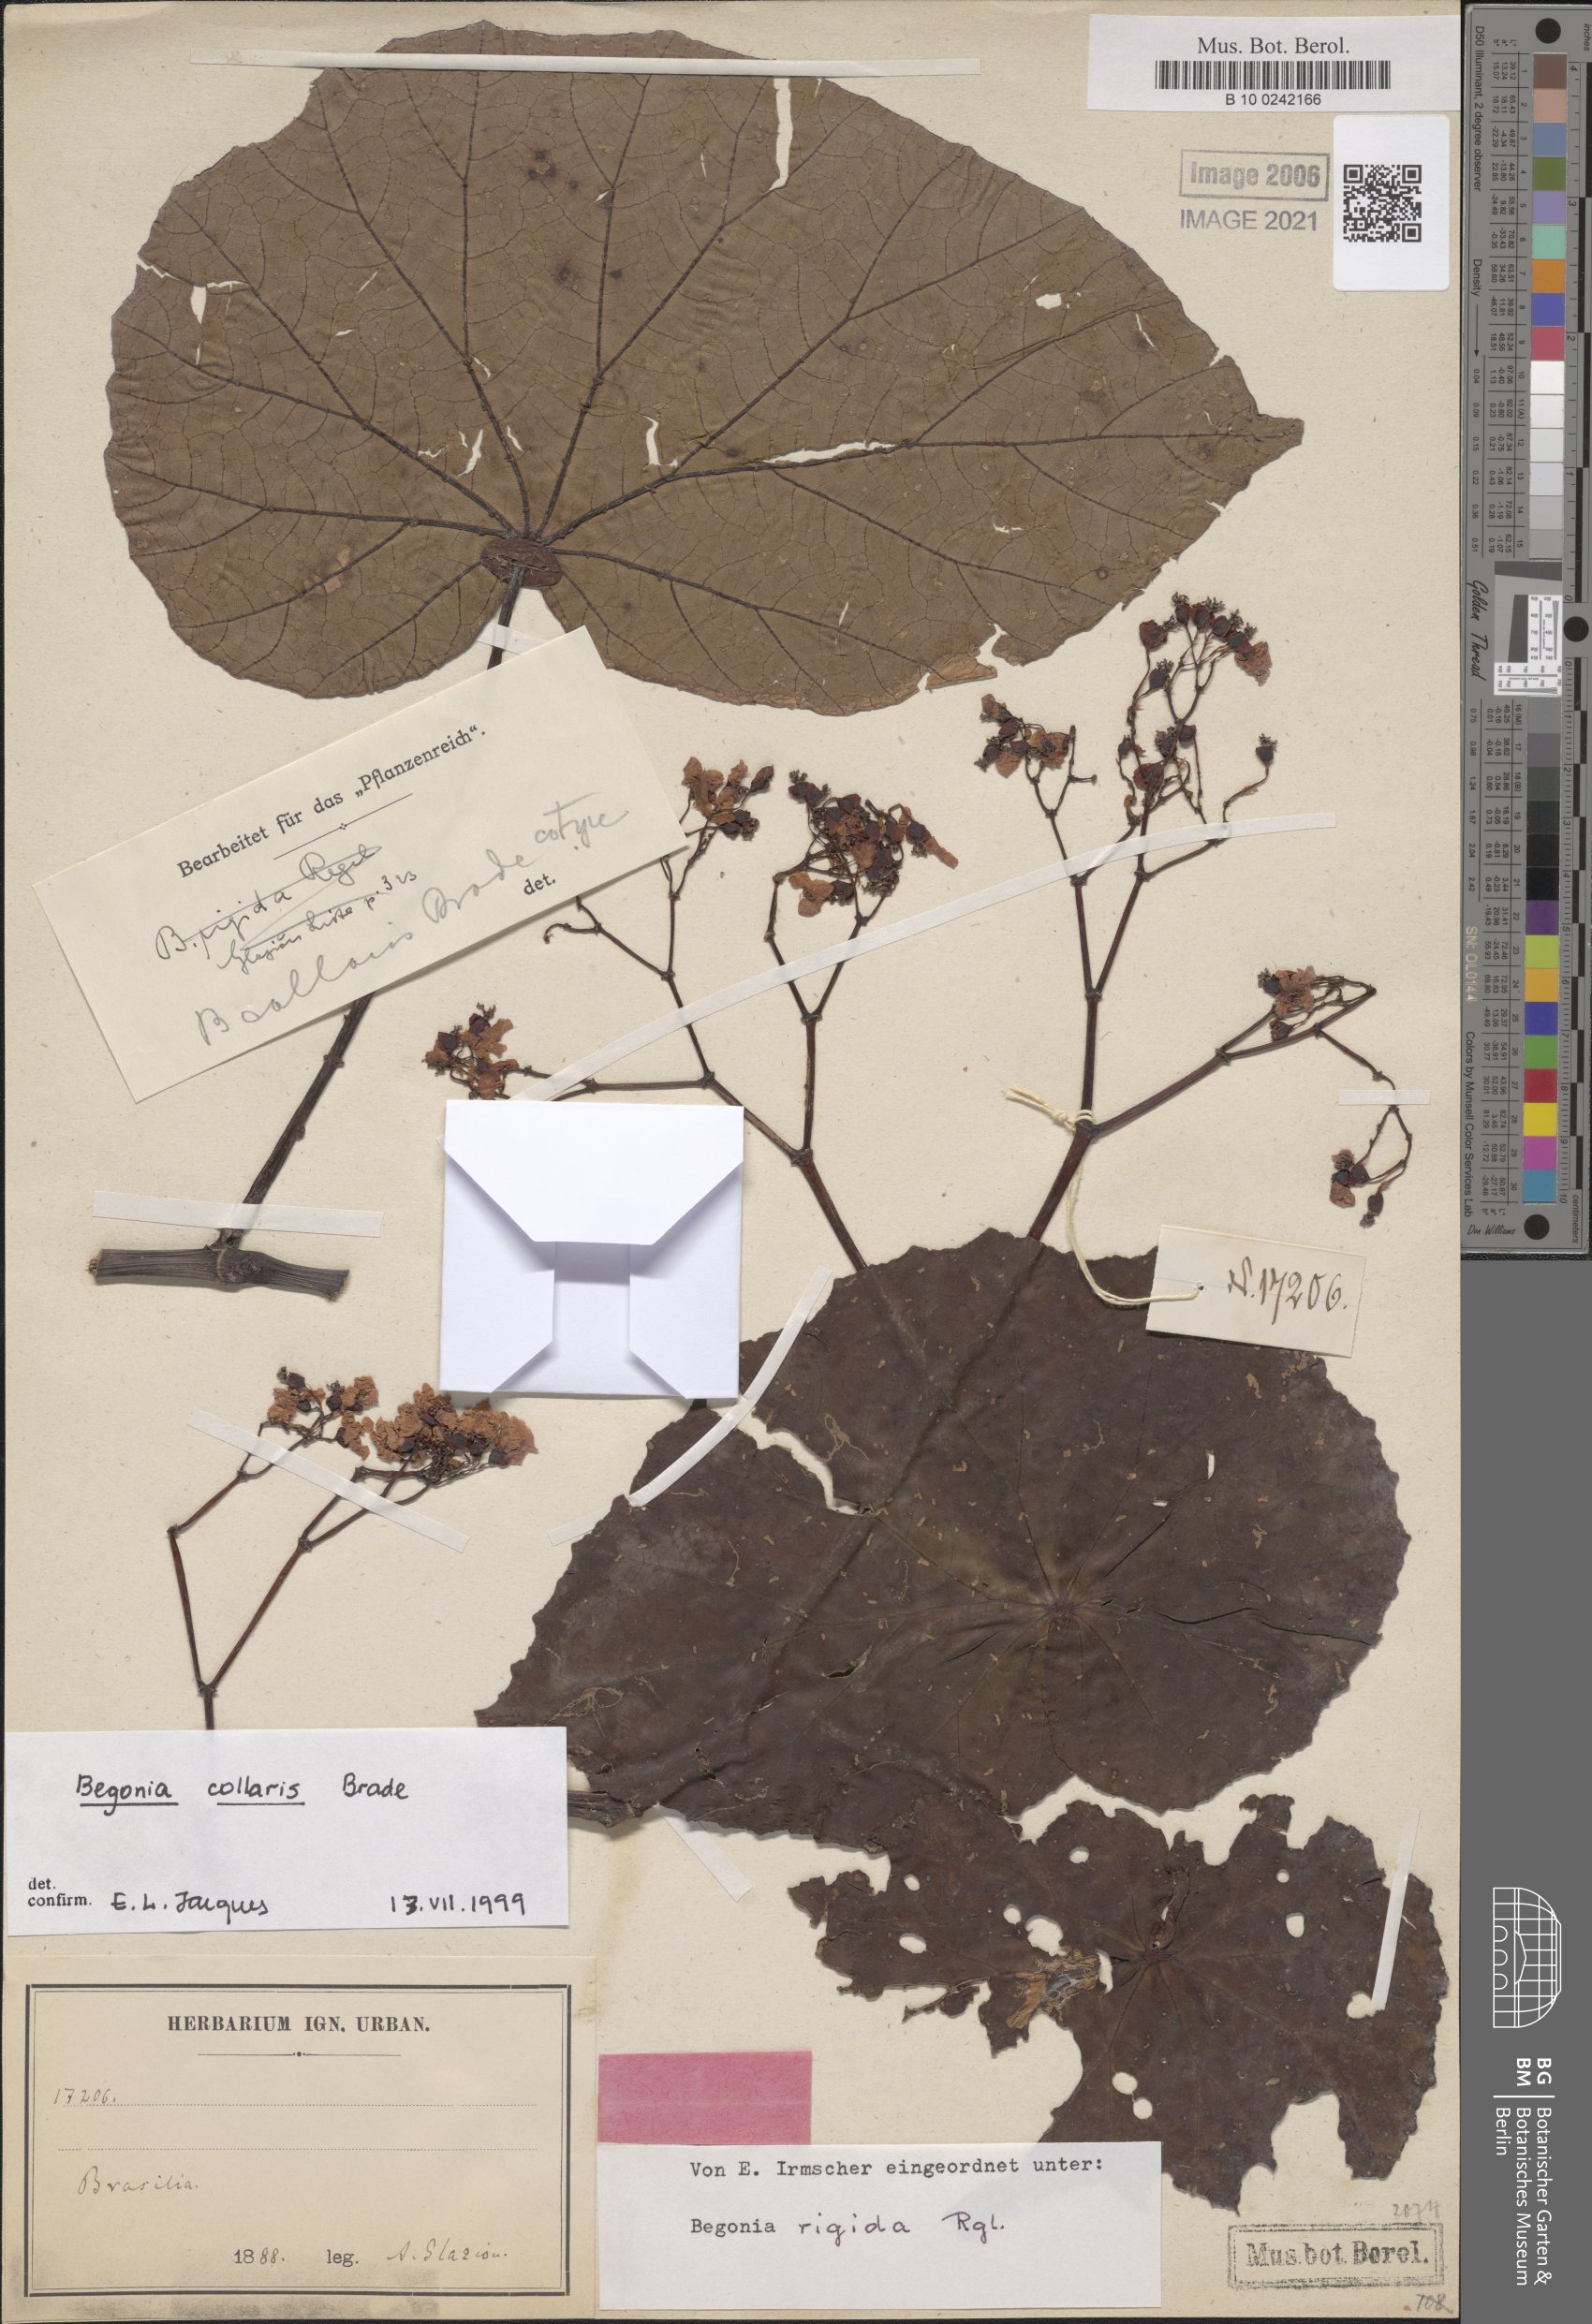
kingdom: Plantae
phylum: Tracheophyta
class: Magnoliopsida
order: Cucurbitales
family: Begoniaceae
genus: Begonia
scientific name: Begonia collaris
